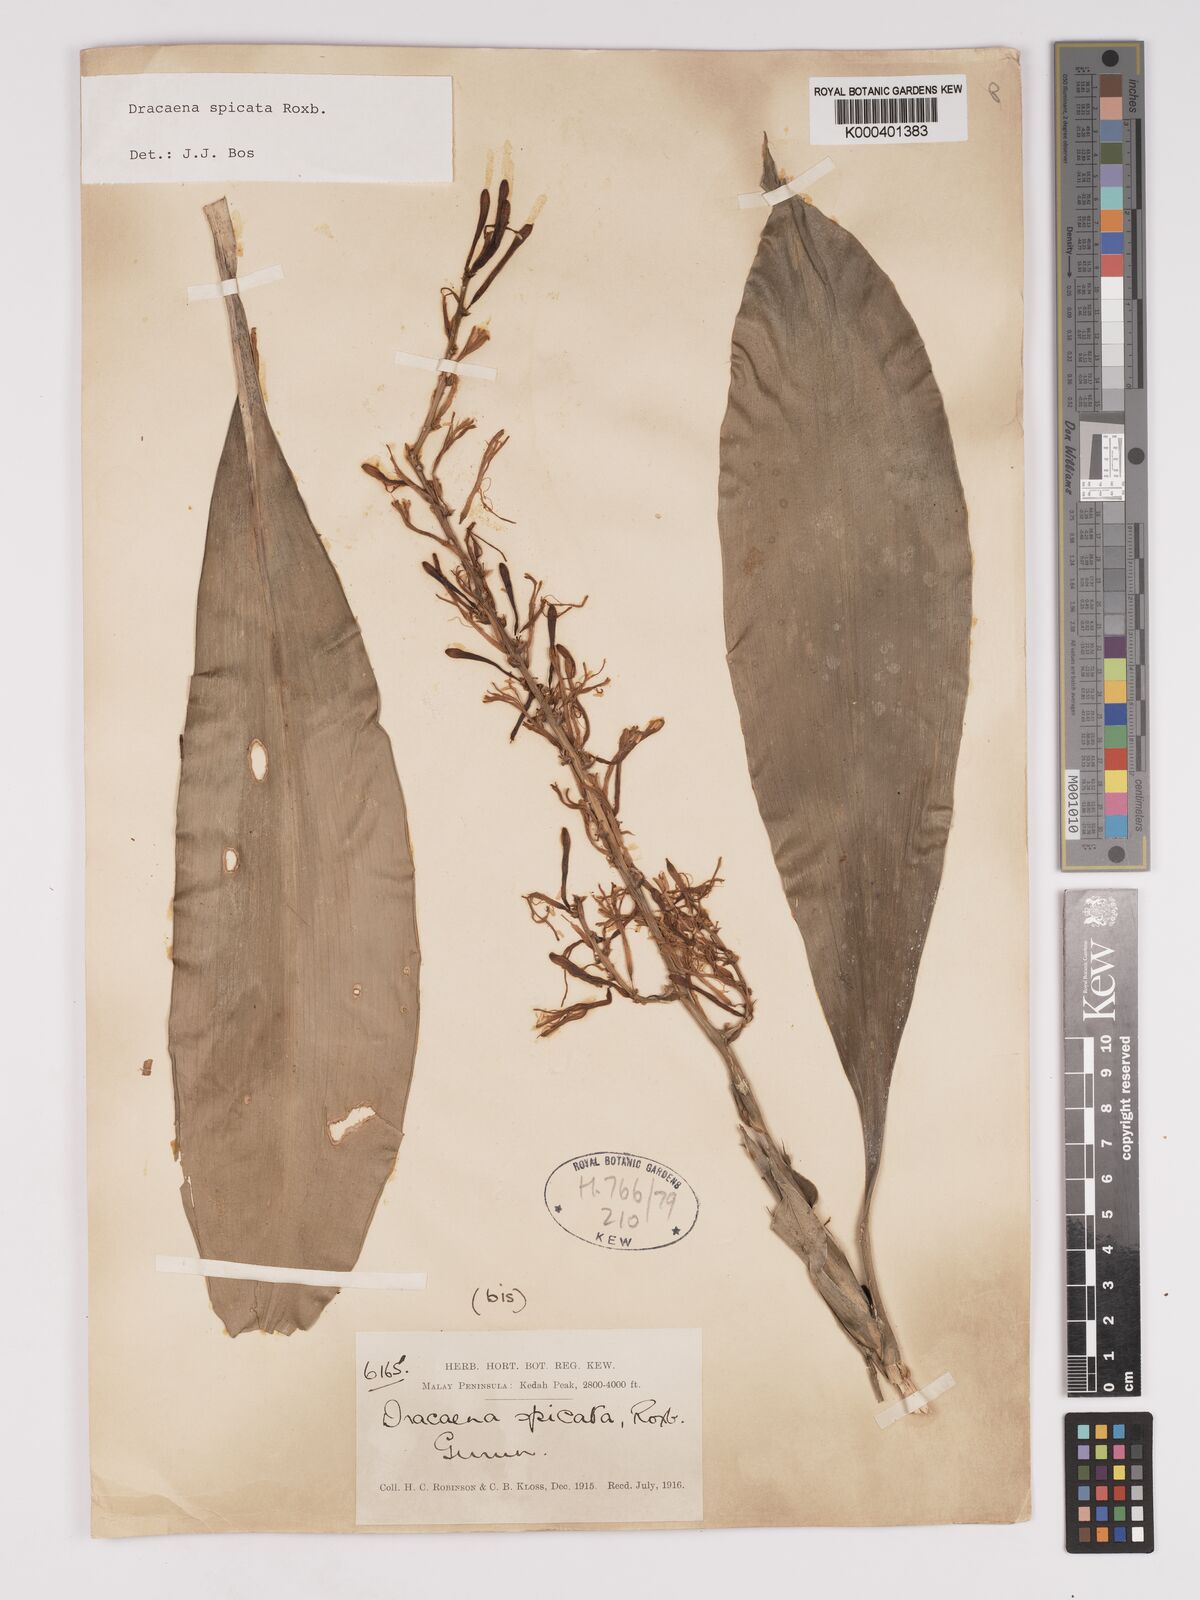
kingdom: Plantae
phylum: Tracheophyta
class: Liliopsida
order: Asparagales
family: Asparagaceae
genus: Dracaena
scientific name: Dracaena spicata
